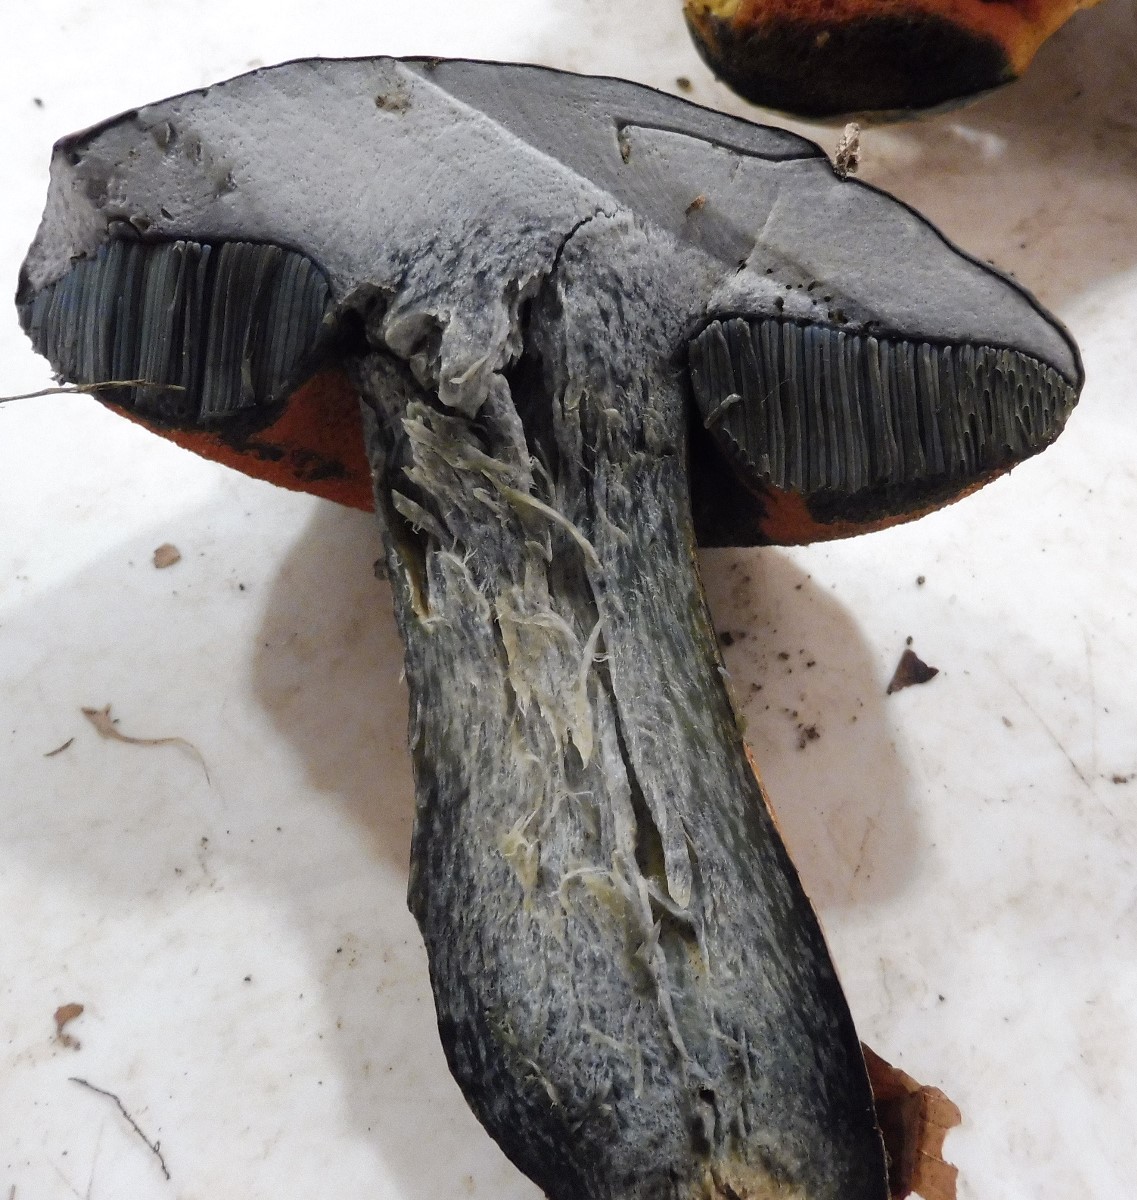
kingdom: Fungi
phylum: Basidiomycota
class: Agaricomycetes
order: Boletales
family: Boletaceae
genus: Suillellus
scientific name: Suillellus luridus
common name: netstokket indigorørhat
